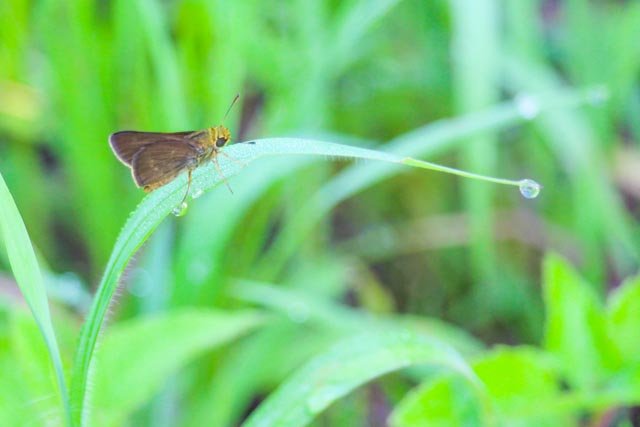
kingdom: Animalia
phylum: Arthropoda
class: Insecta
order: Lepidoptera
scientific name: Lepidoptera
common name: Butterflies
